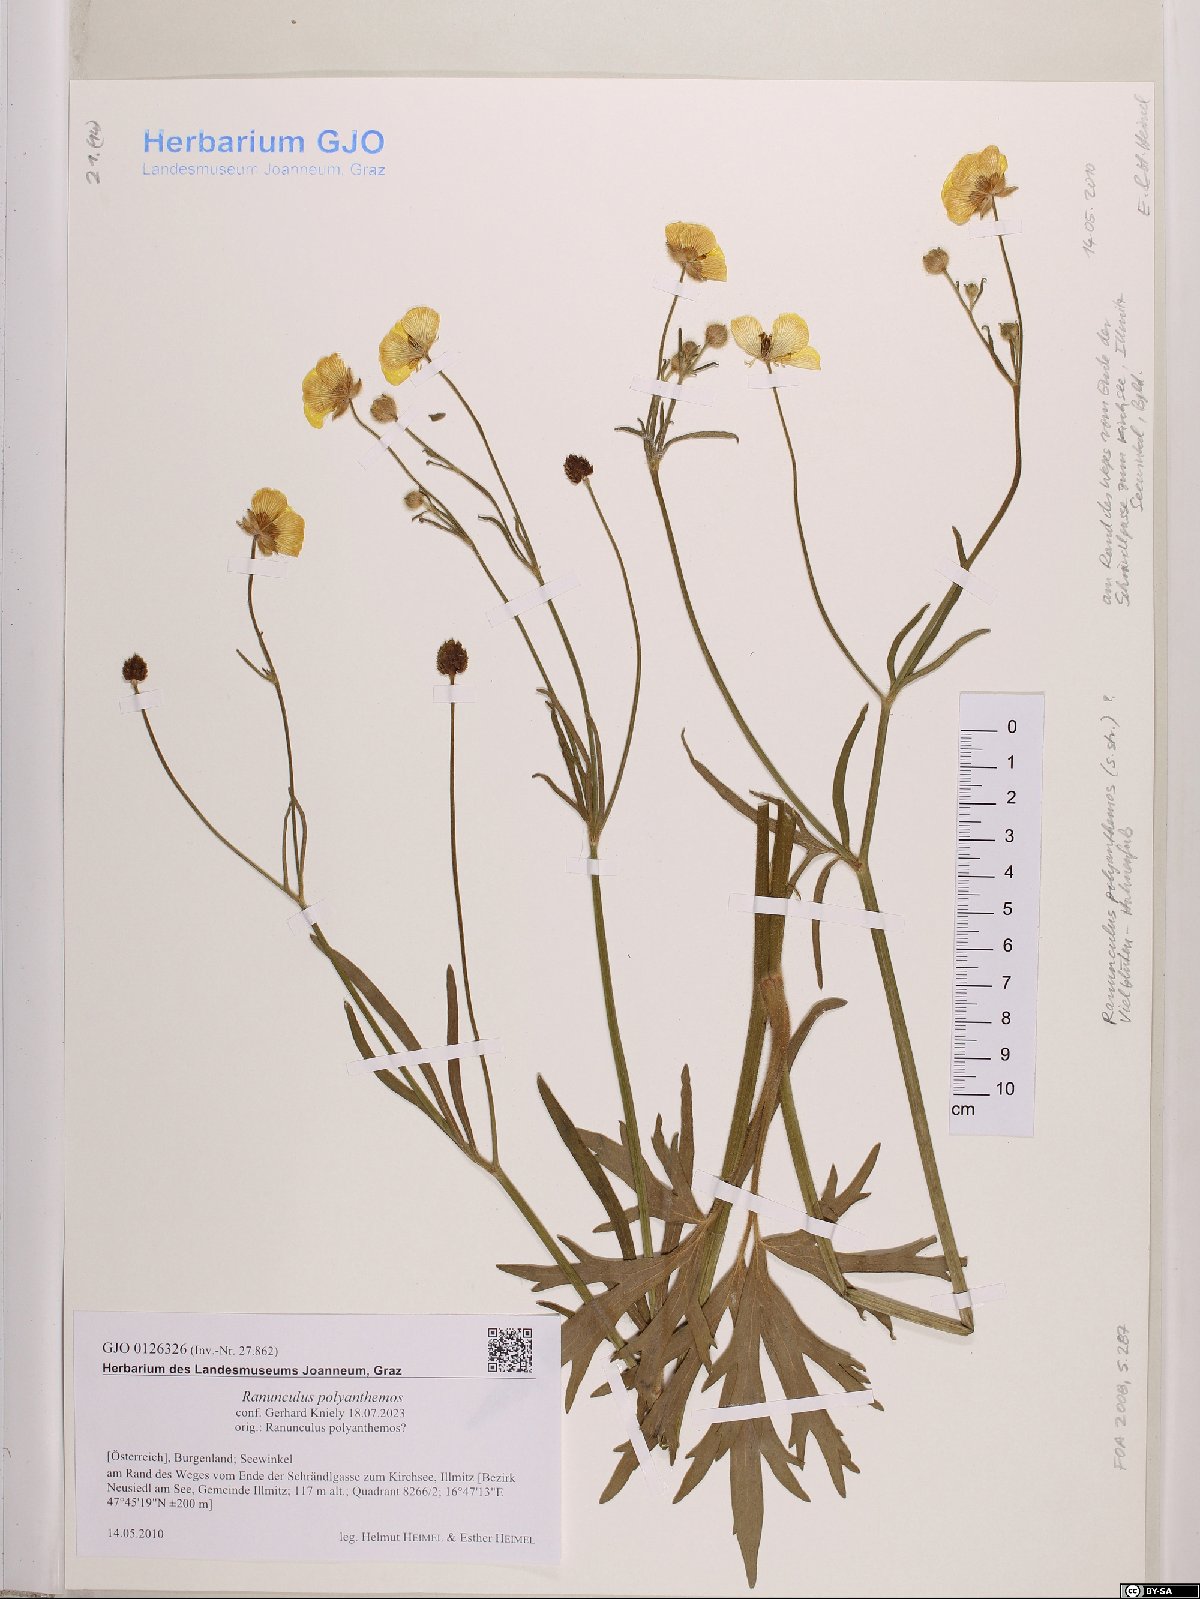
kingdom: Plantae
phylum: Tracheophyta
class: Magnoliopsida
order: Ranunculales
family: Ranunculaceae
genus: Ranunculus
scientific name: Ranunculus polyanthemos
